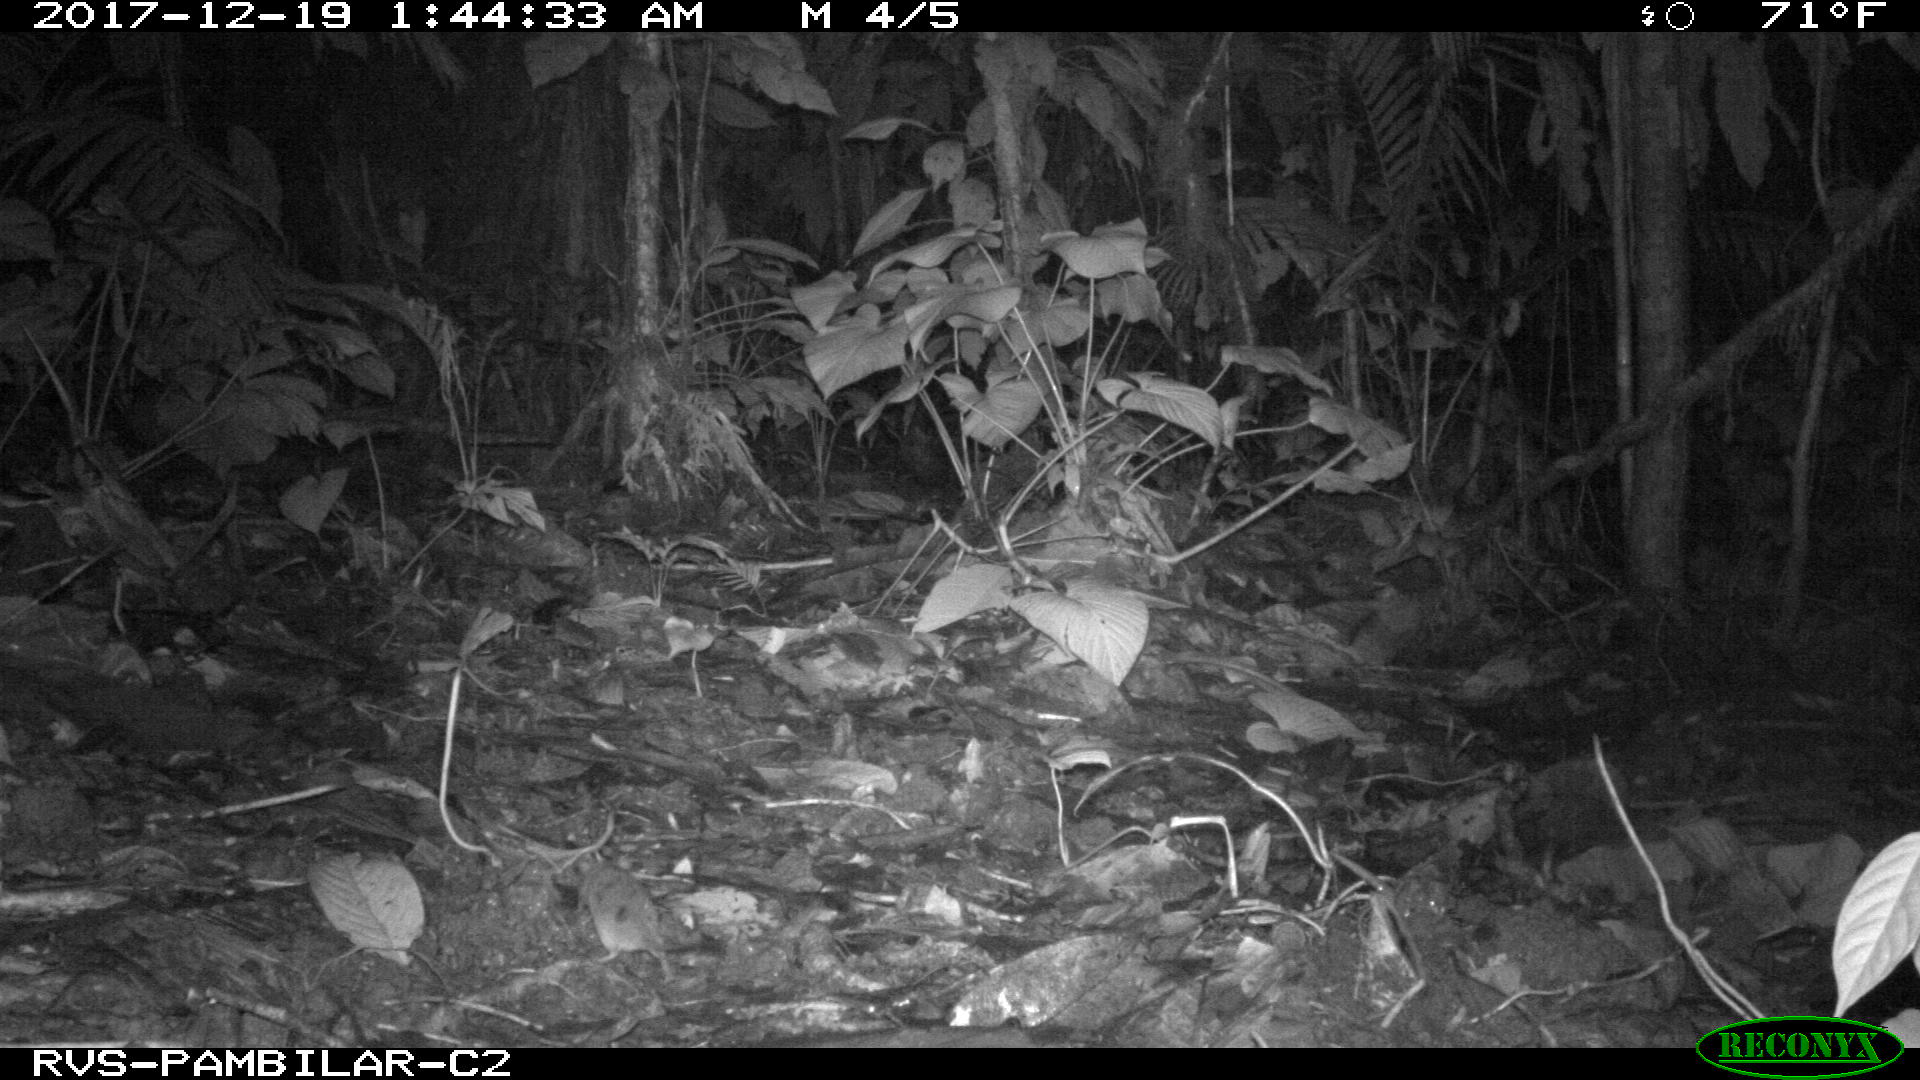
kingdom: Animalia
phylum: Chordata
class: Mammalia
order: Rodentia
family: Echimyidae
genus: Proechimys
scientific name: Proechimys
